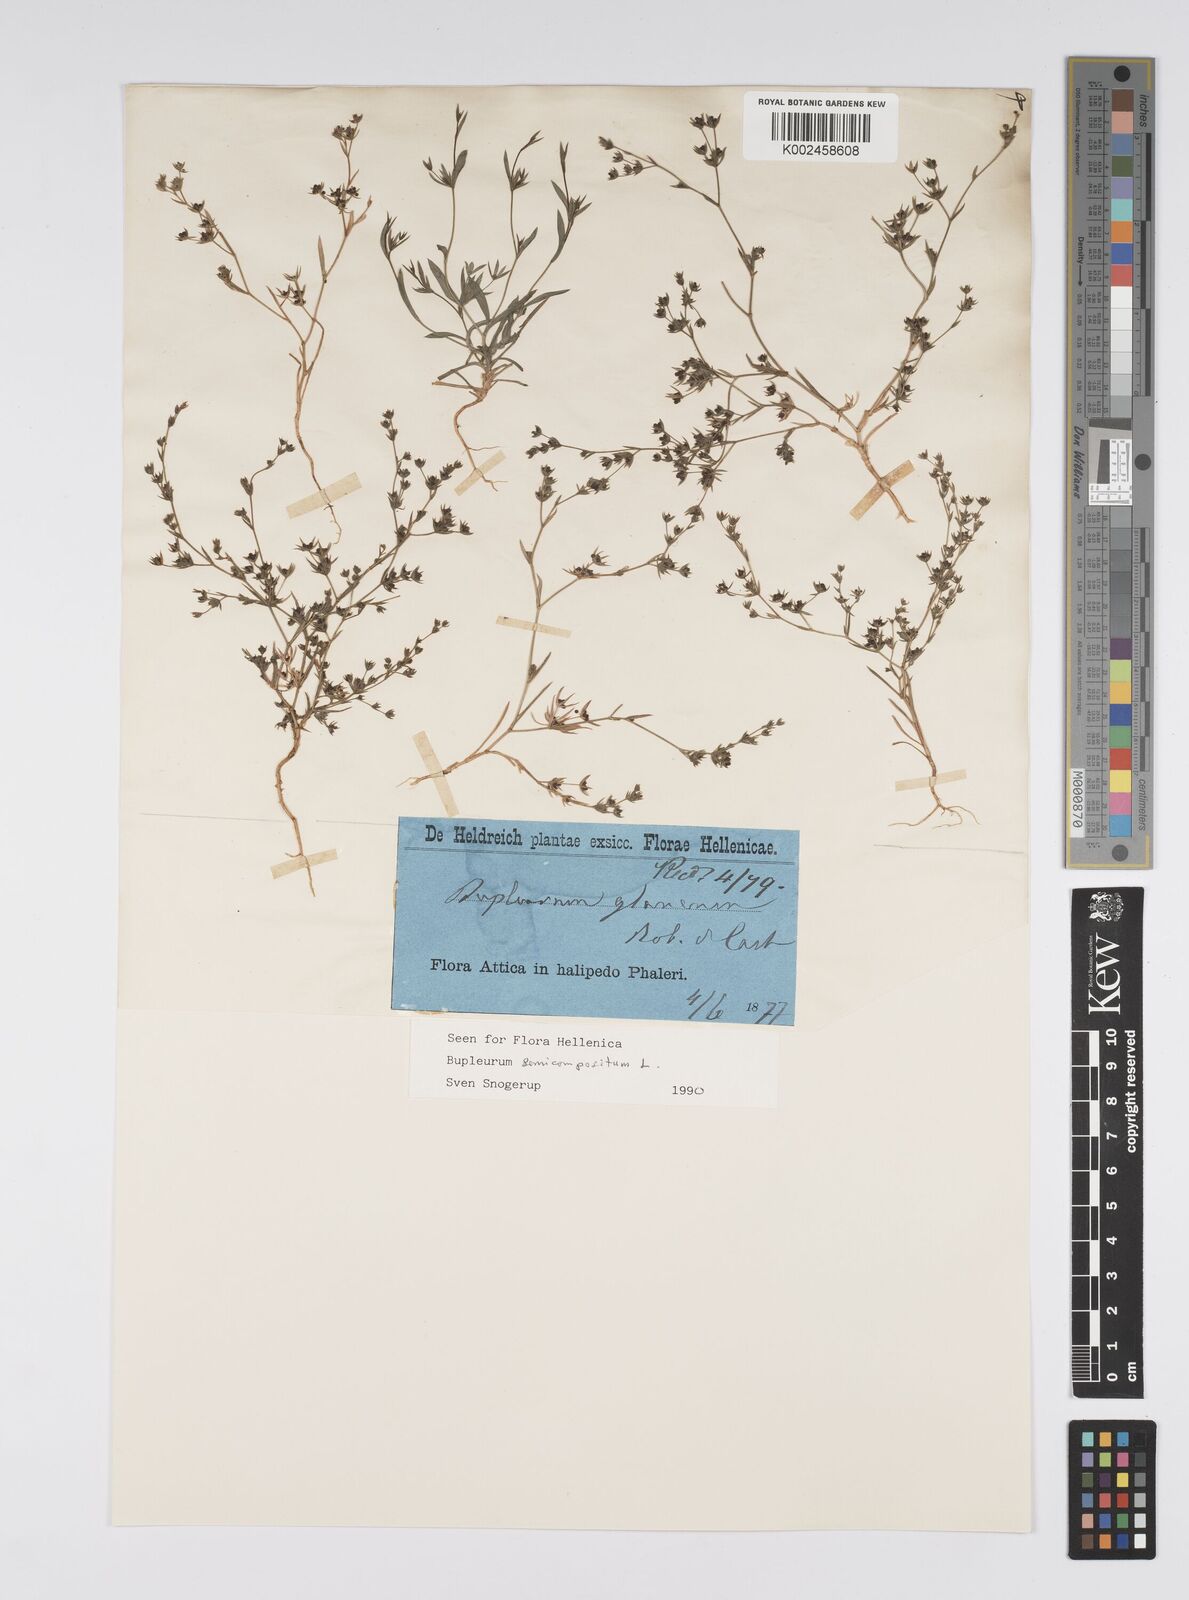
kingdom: Plantae
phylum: Tracheophyta
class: Magnoliopsida
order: Apiales
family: Apiaceae
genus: Bupleurum
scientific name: Bupleurum semicompositum
